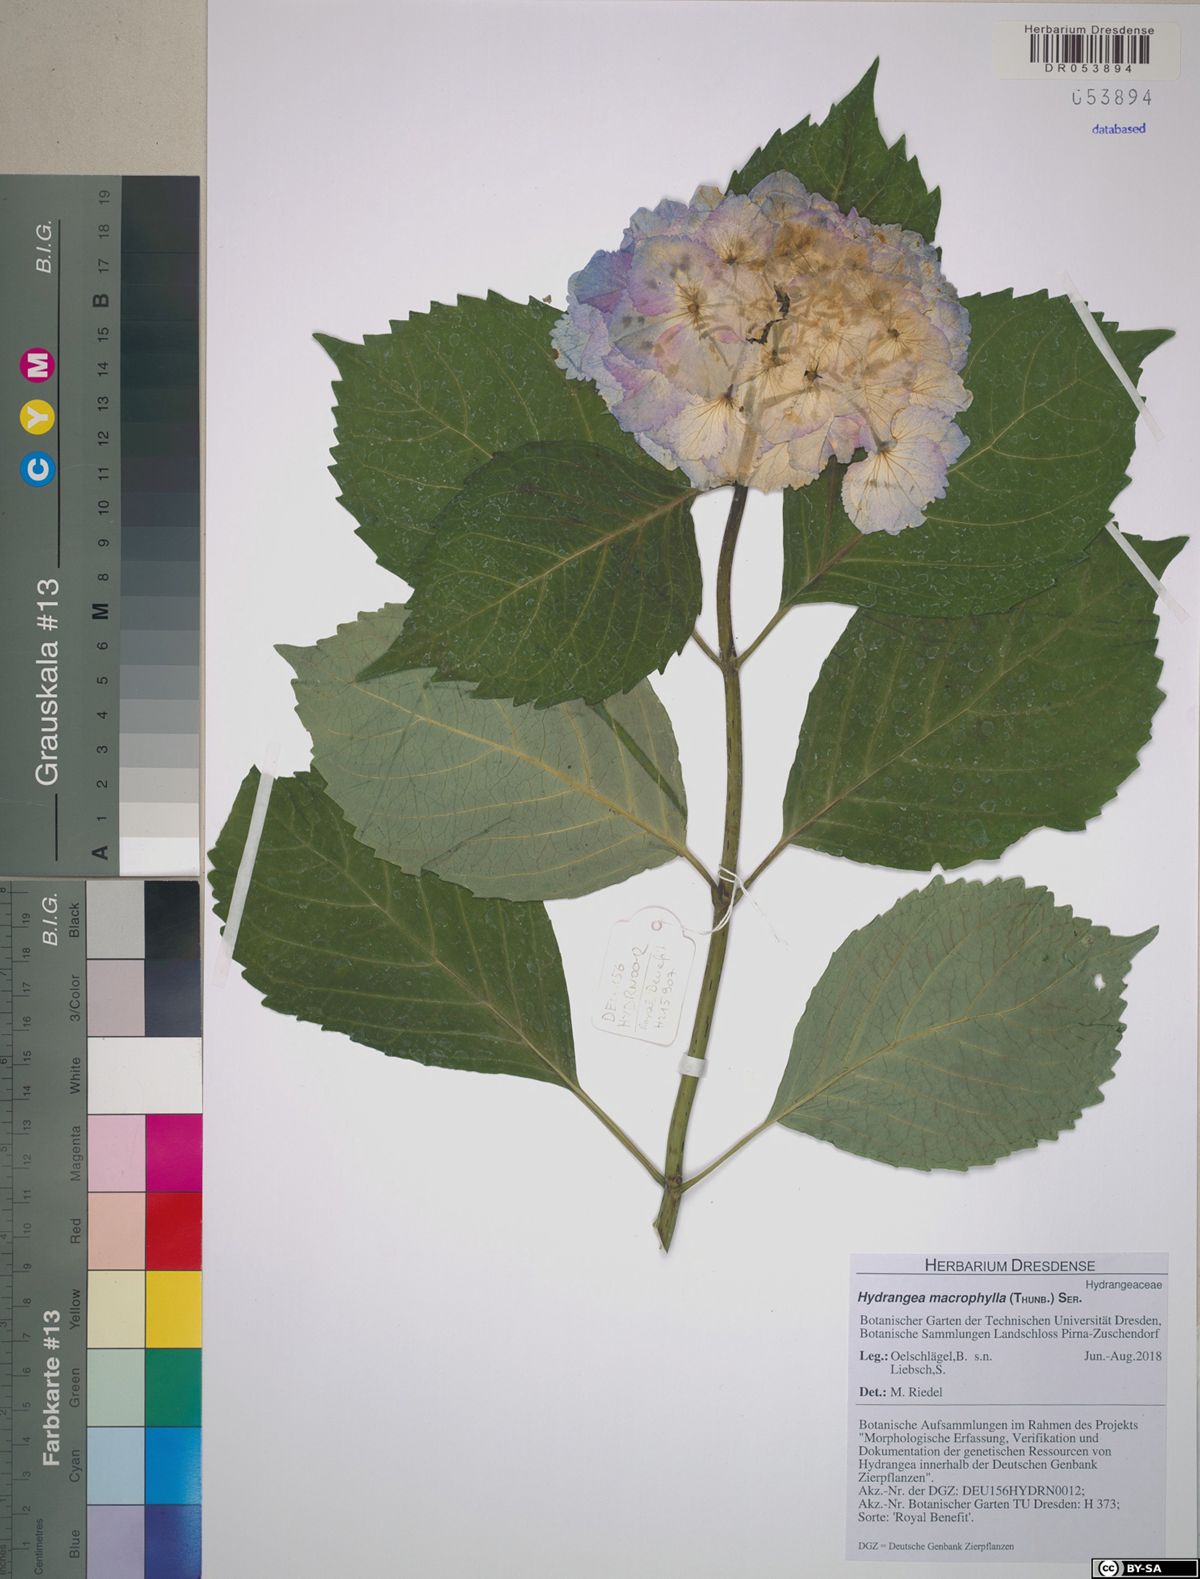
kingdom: Plantae
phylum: Tracheophyta
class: Magnoliopsida
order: Cornales
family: Hydrangeaceae
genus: Hydrangea
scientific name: Hydrangea macrophylla
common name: Hydrangea
